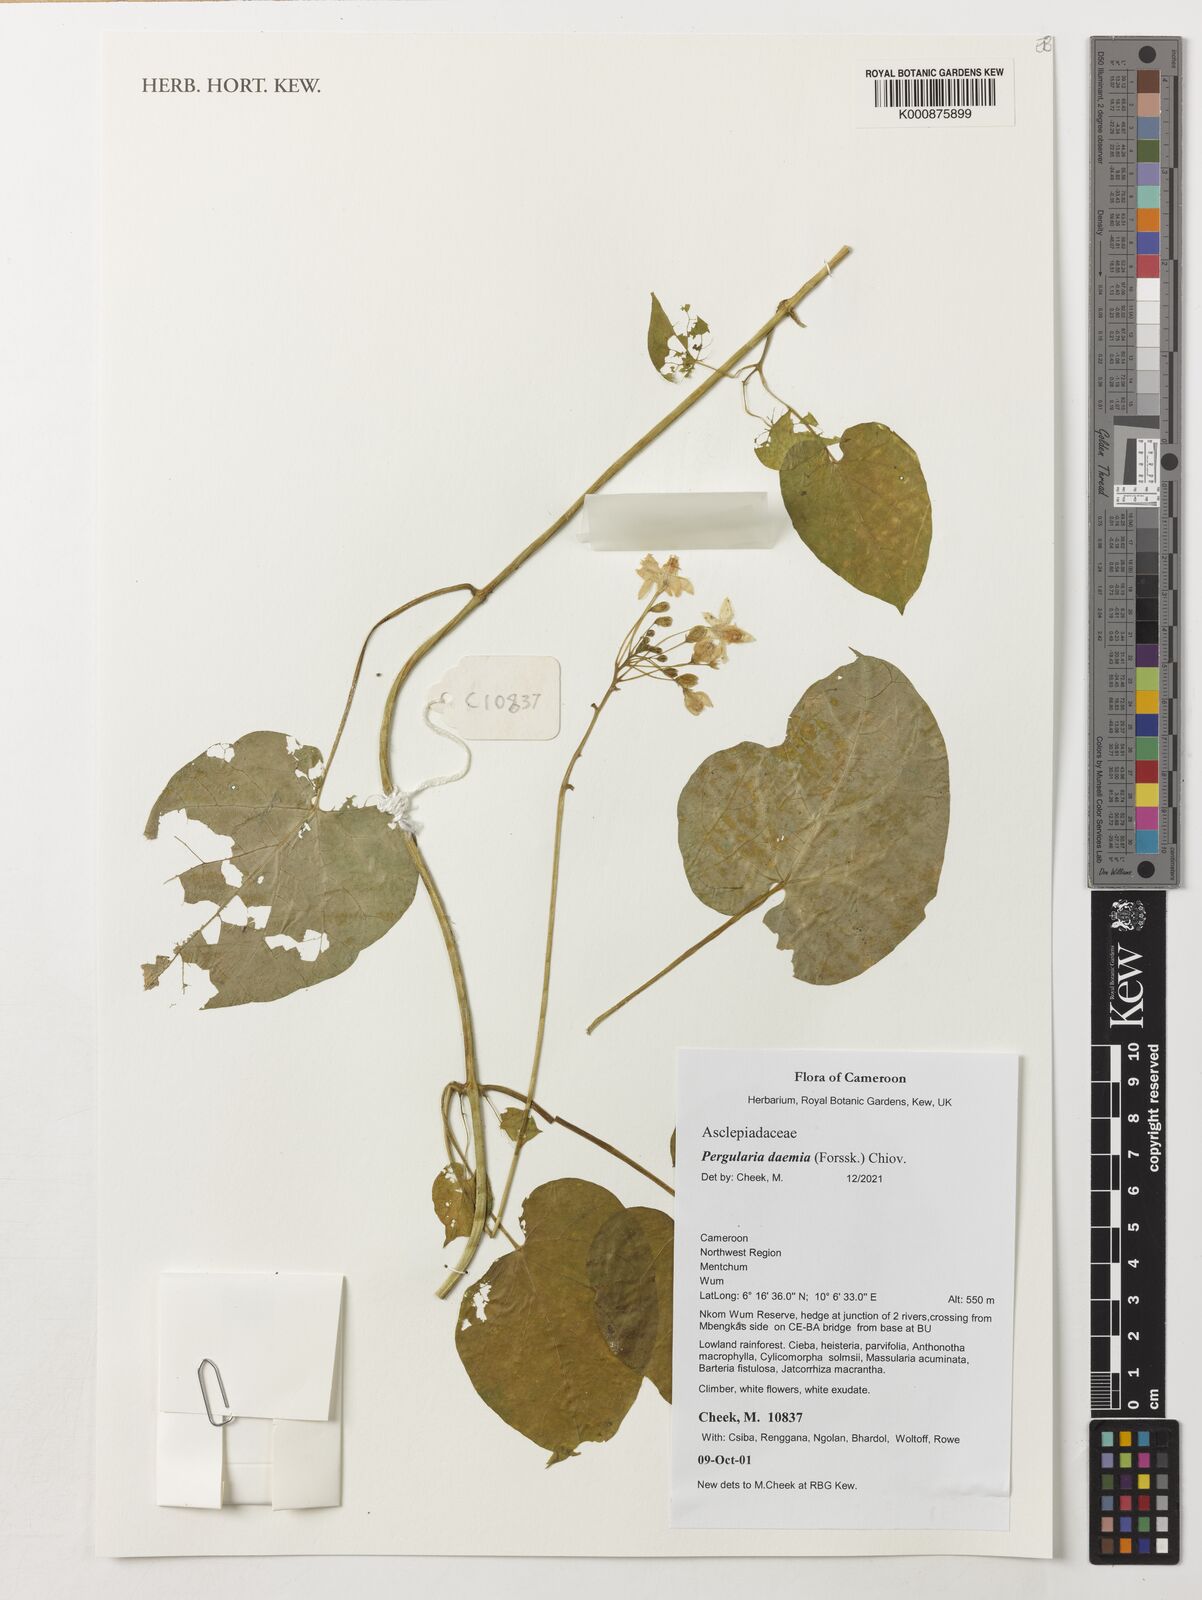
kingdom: Plantae
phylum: Tracheophyta
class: Magnoliopsida
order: Gentianales
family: Apocynaceae
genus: Pergularia
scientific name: Pergularia daemia
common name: Trellis-vine
